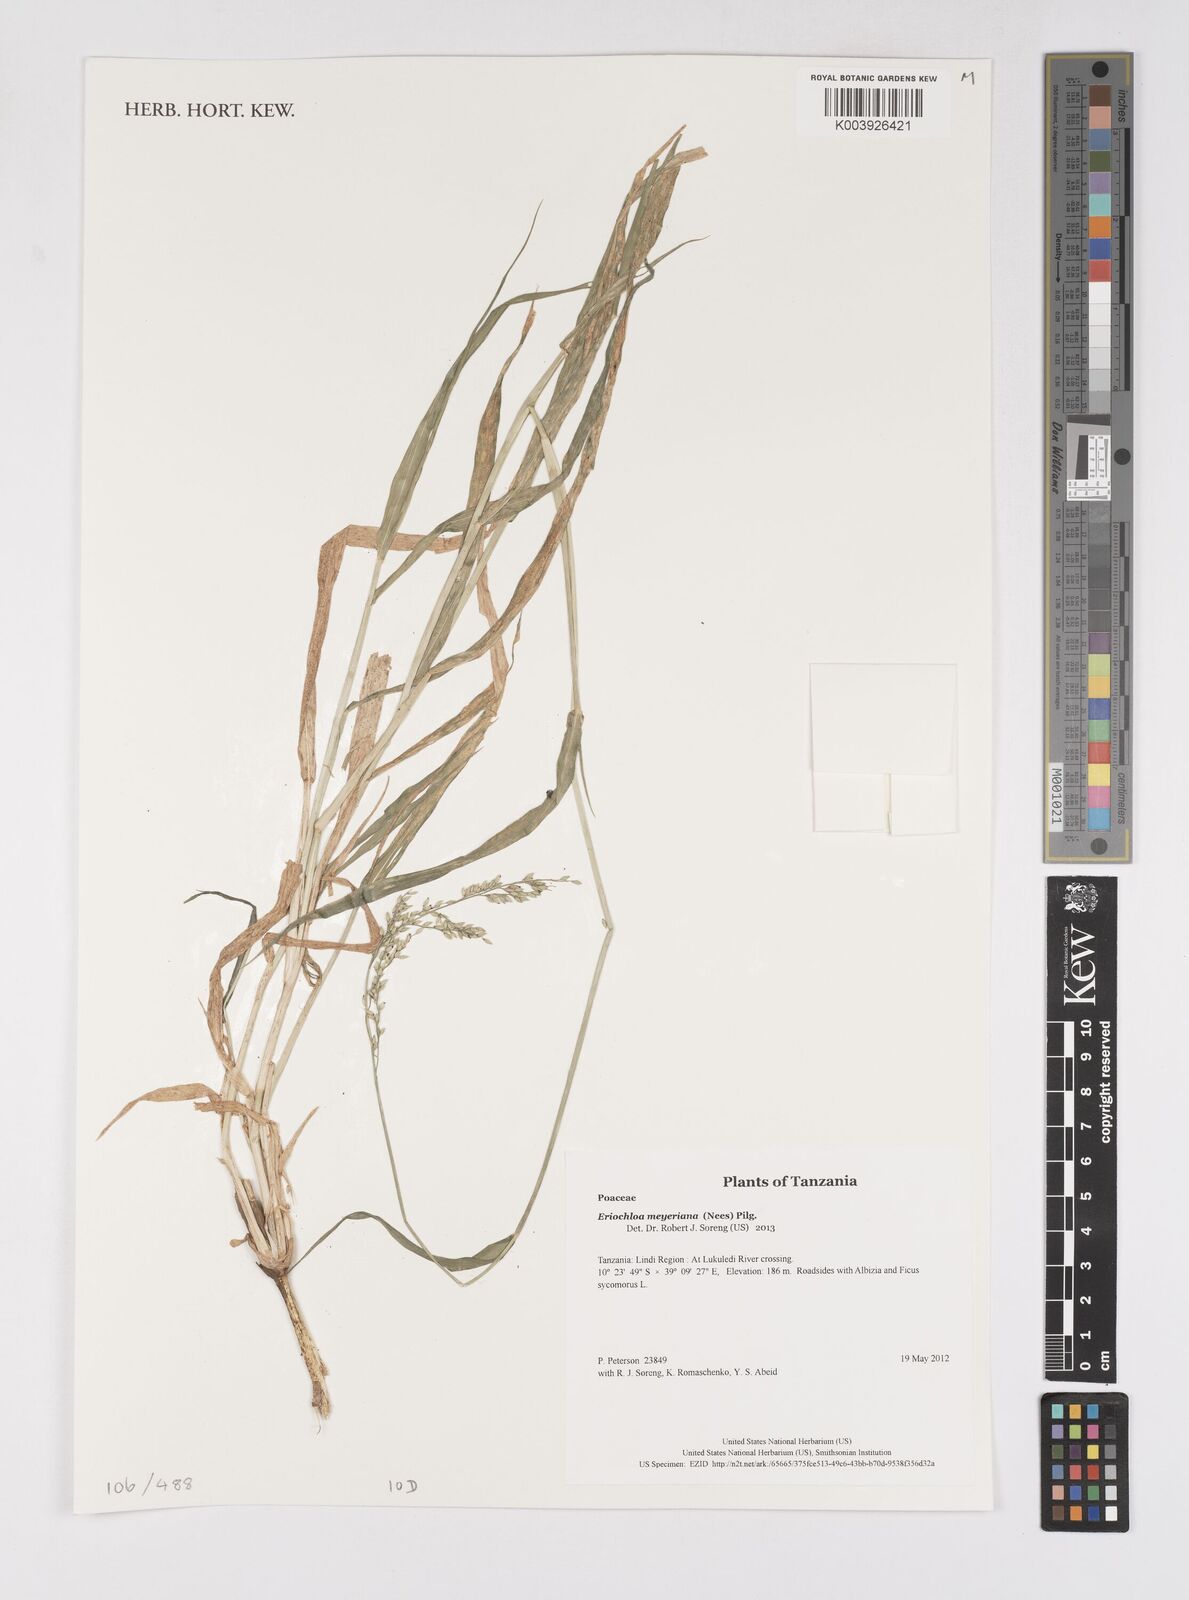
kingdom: Plantae
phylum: Tracheophyta
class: Liliopsida
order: Poales
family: Poaceae
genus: Eriochloa
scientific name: Eriochloa meyeriana
